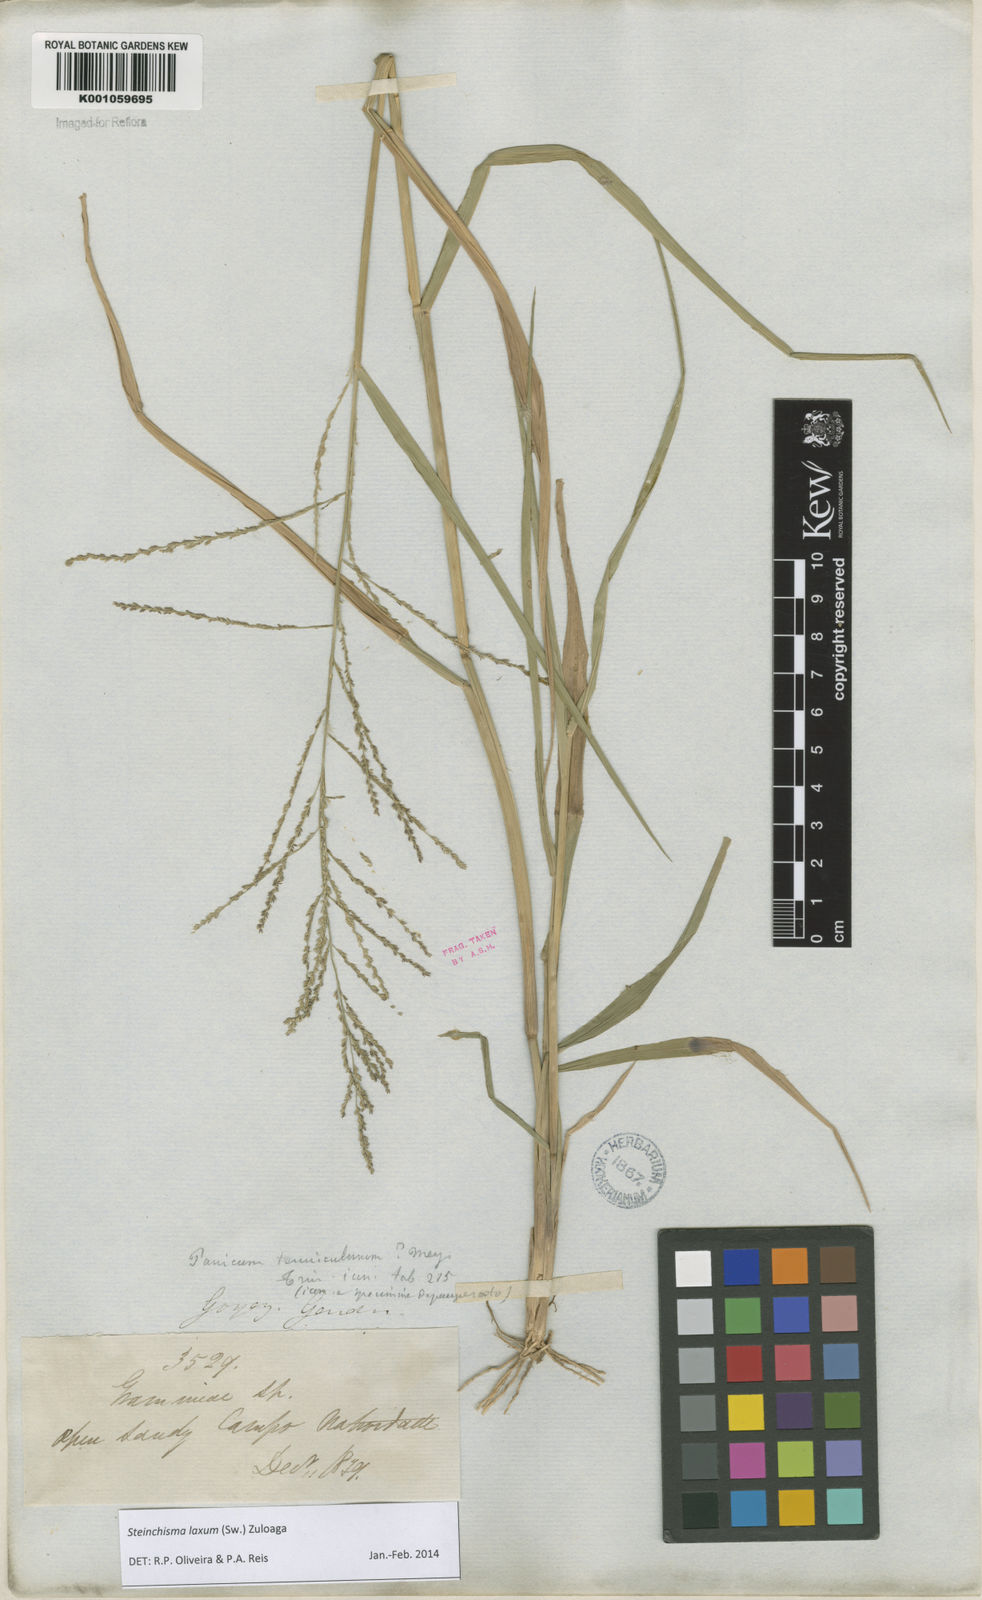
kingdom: Plantae
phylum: Tracheophyta
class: Liliopsida
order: Poales
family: Poaceae
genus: Steinchisma
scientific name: Steinchisma laxum
